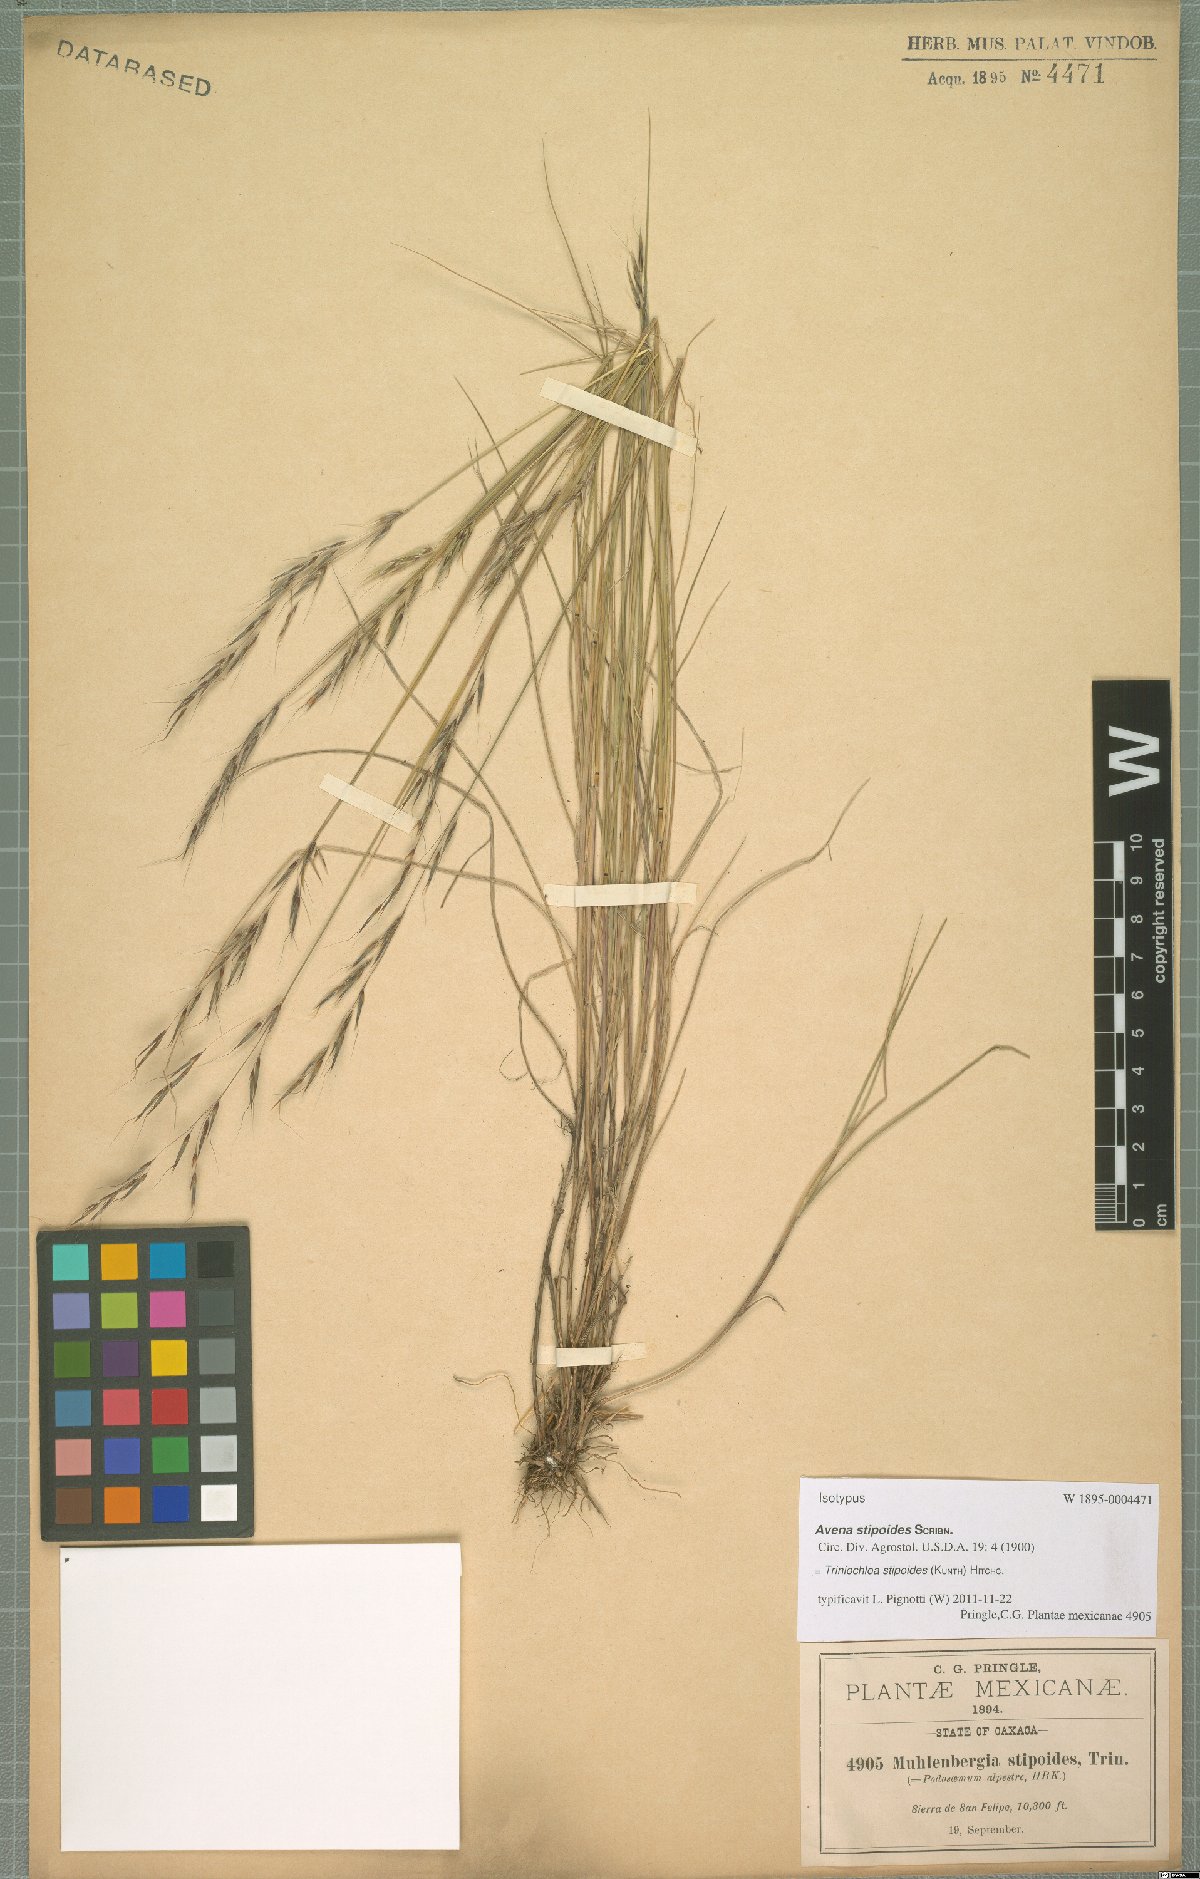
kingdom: Plantae
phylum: Tracheophyta
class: Liliopsida
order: Poales
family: Poaceae
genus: Triniochloa
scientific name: Triniochloa stipoides
